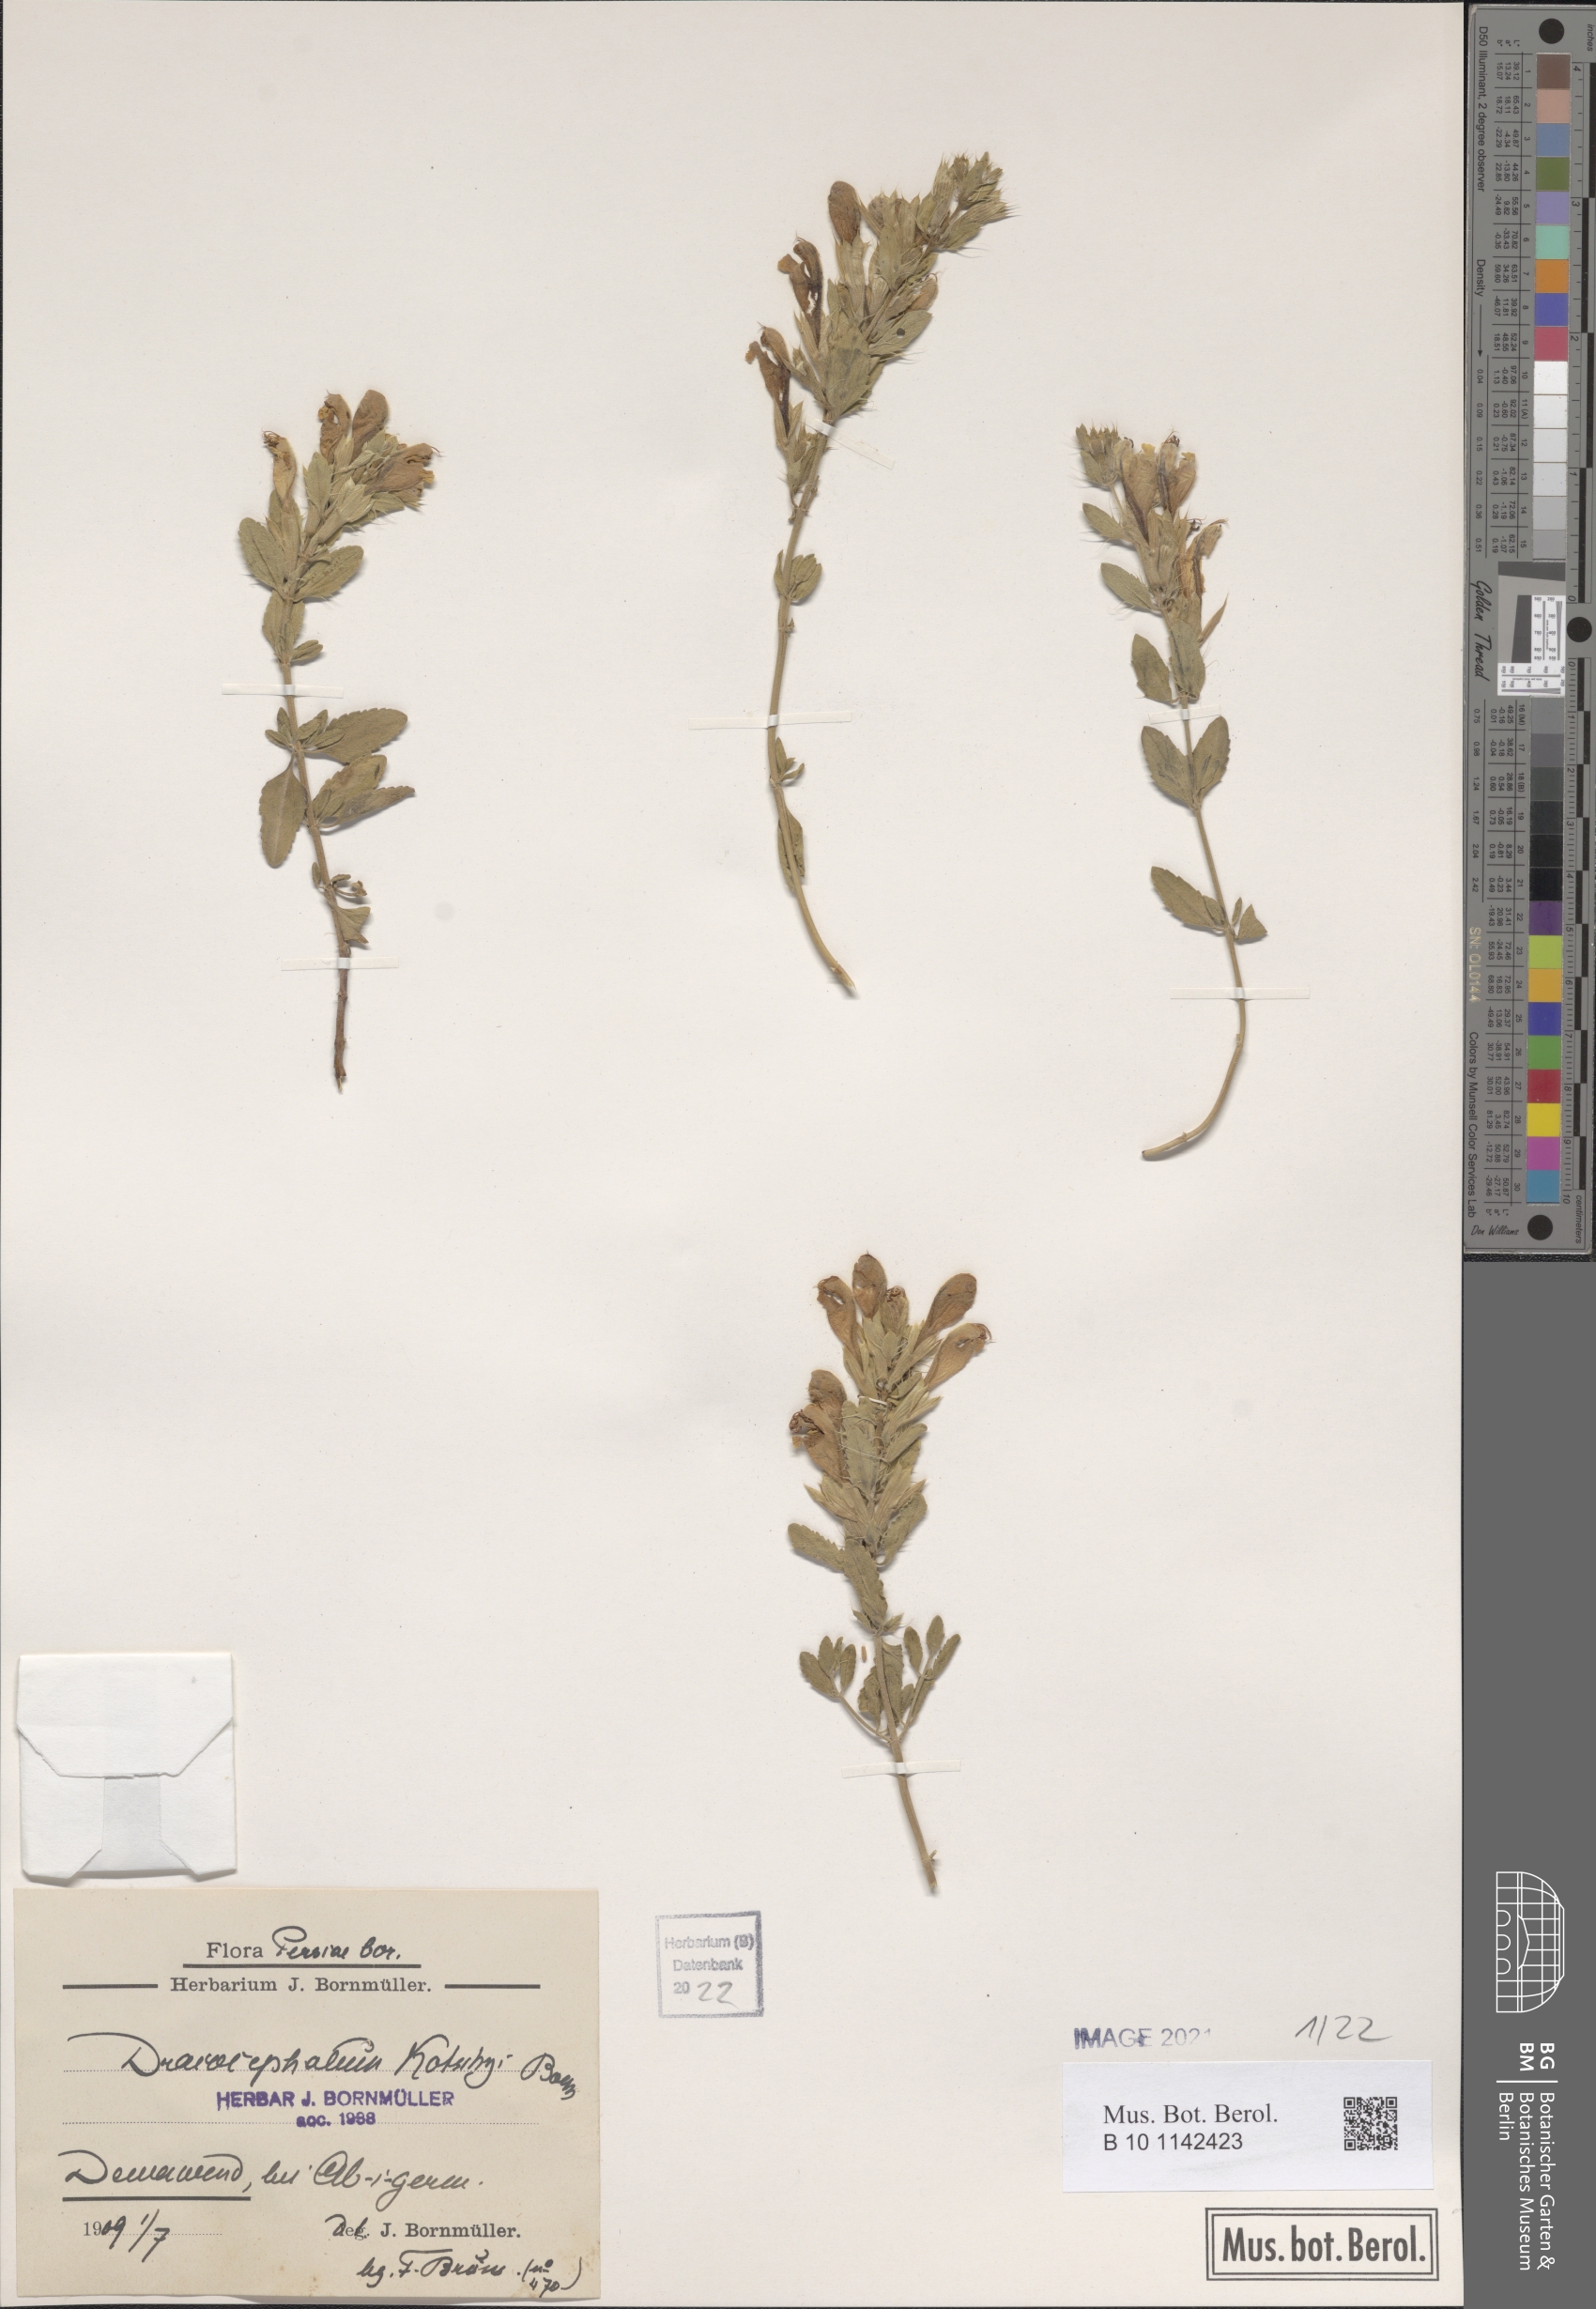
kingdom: Plantae
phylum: Tracheophyta
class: Magnoliopsida
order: Lamiales
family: Lamiaceae
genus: Dracocephalum
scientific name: Dracocephalum kotschyi
